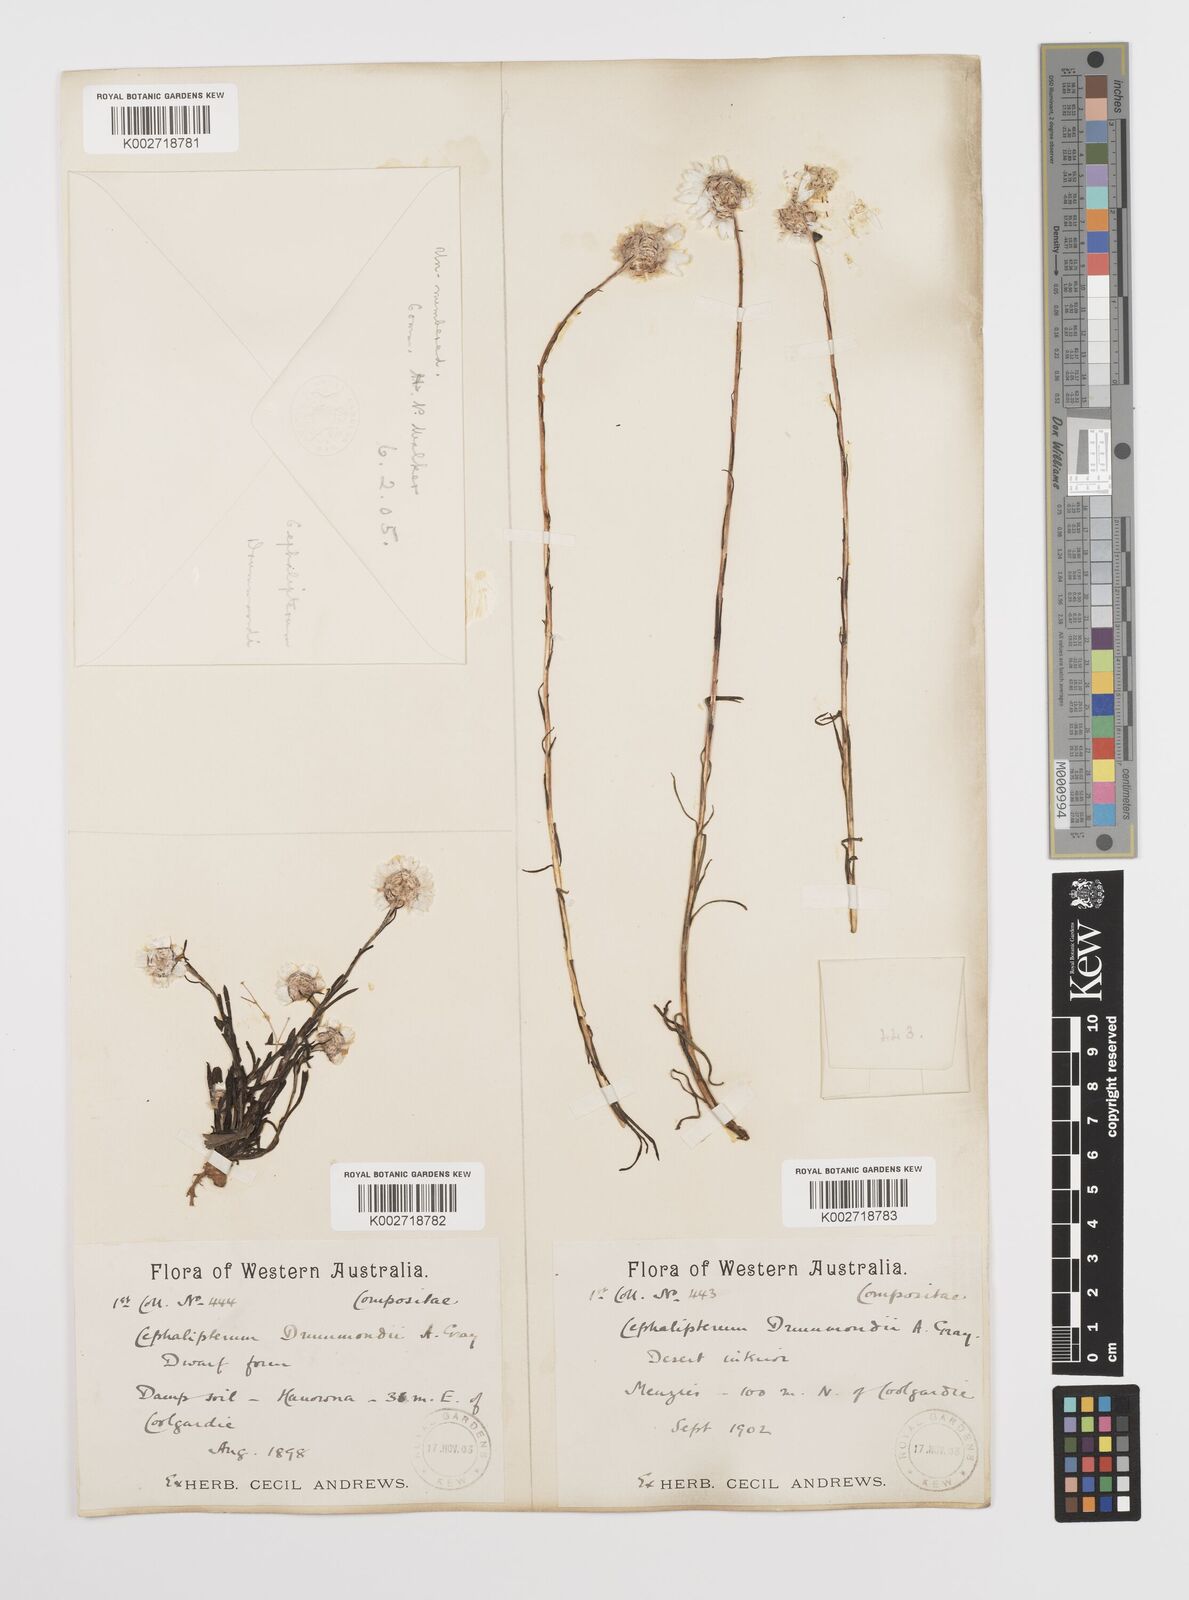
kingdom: Plantae
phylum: Tracheophyta
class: Magnoliopsida
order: Asterales
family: Asteraceae
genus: Cephalipterum
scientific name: Cephalipterum drummondii
